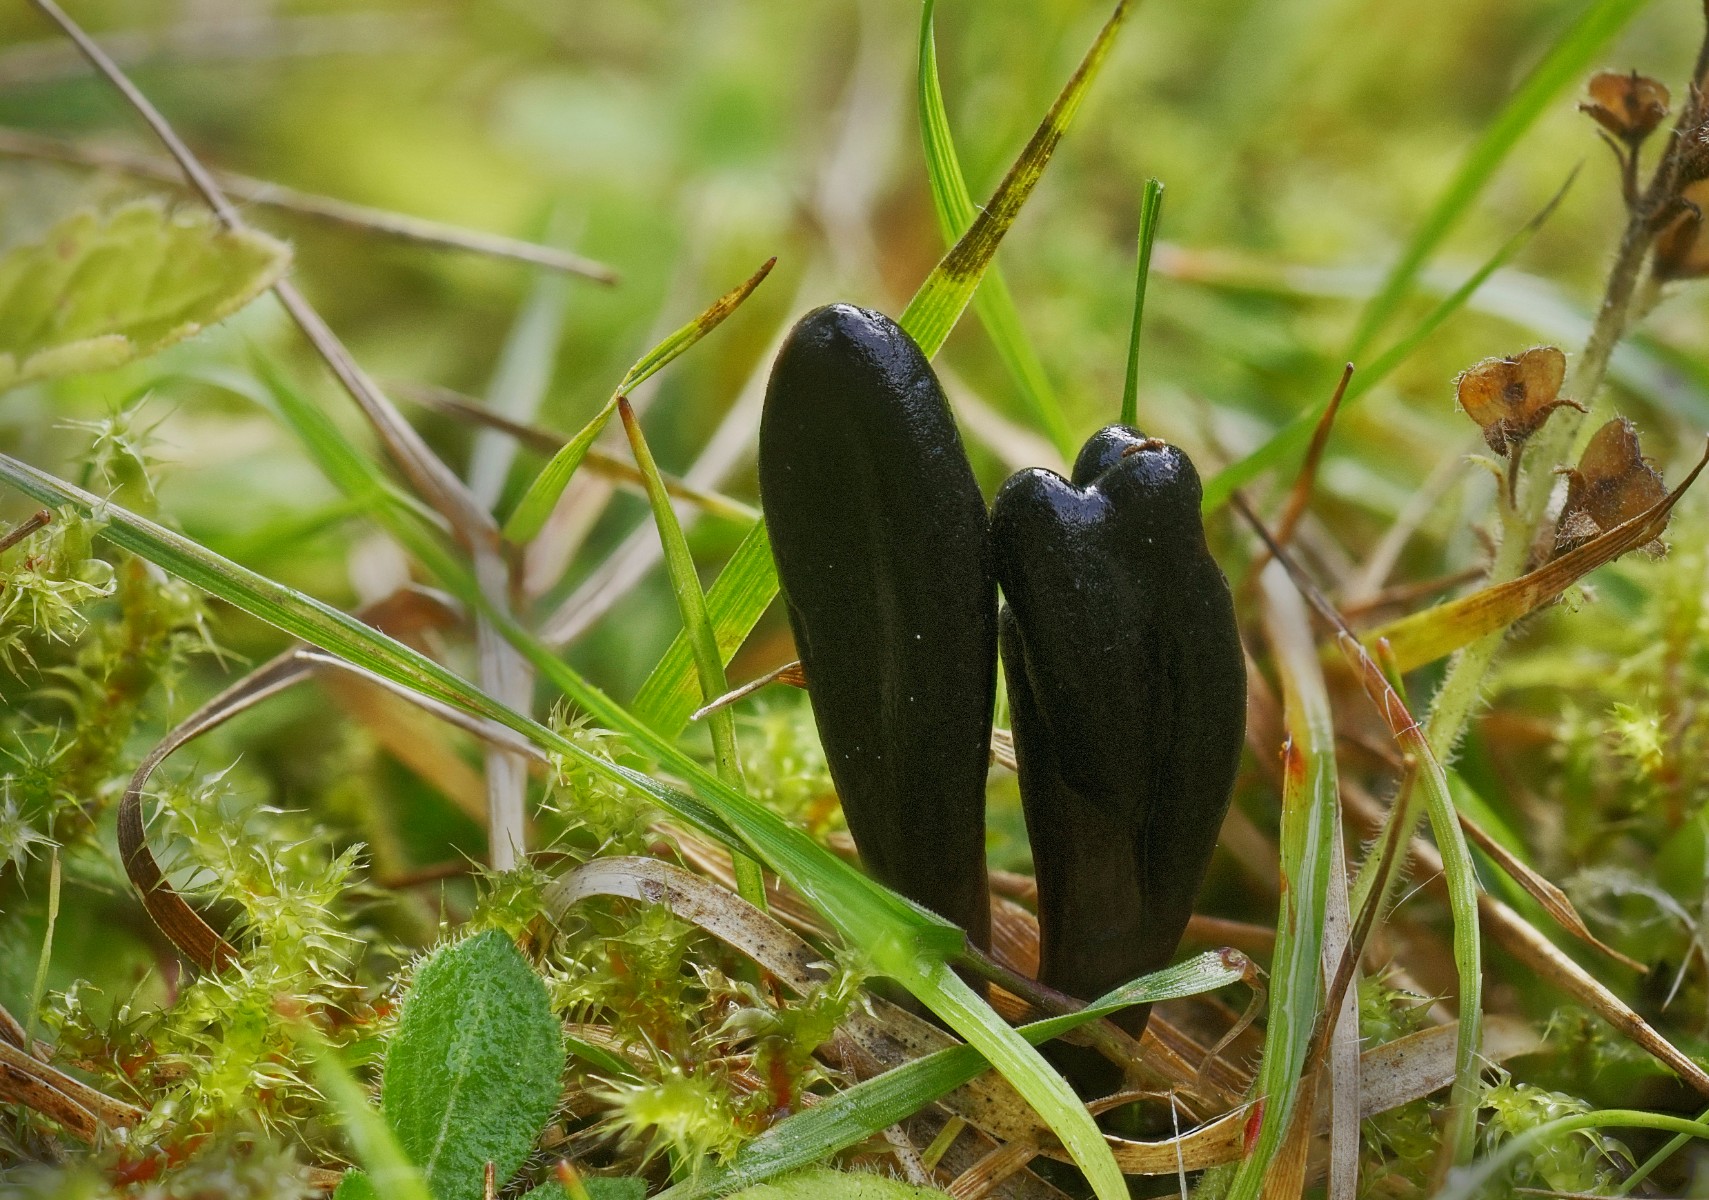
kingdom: Fungi
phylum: Ascomycota
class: Geoglossomycetes
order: Geoglossales
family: Geoglossaceae
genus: Glutinoglossum
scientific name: Glutinoglossum glutinosum
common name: slimet jordtunge
